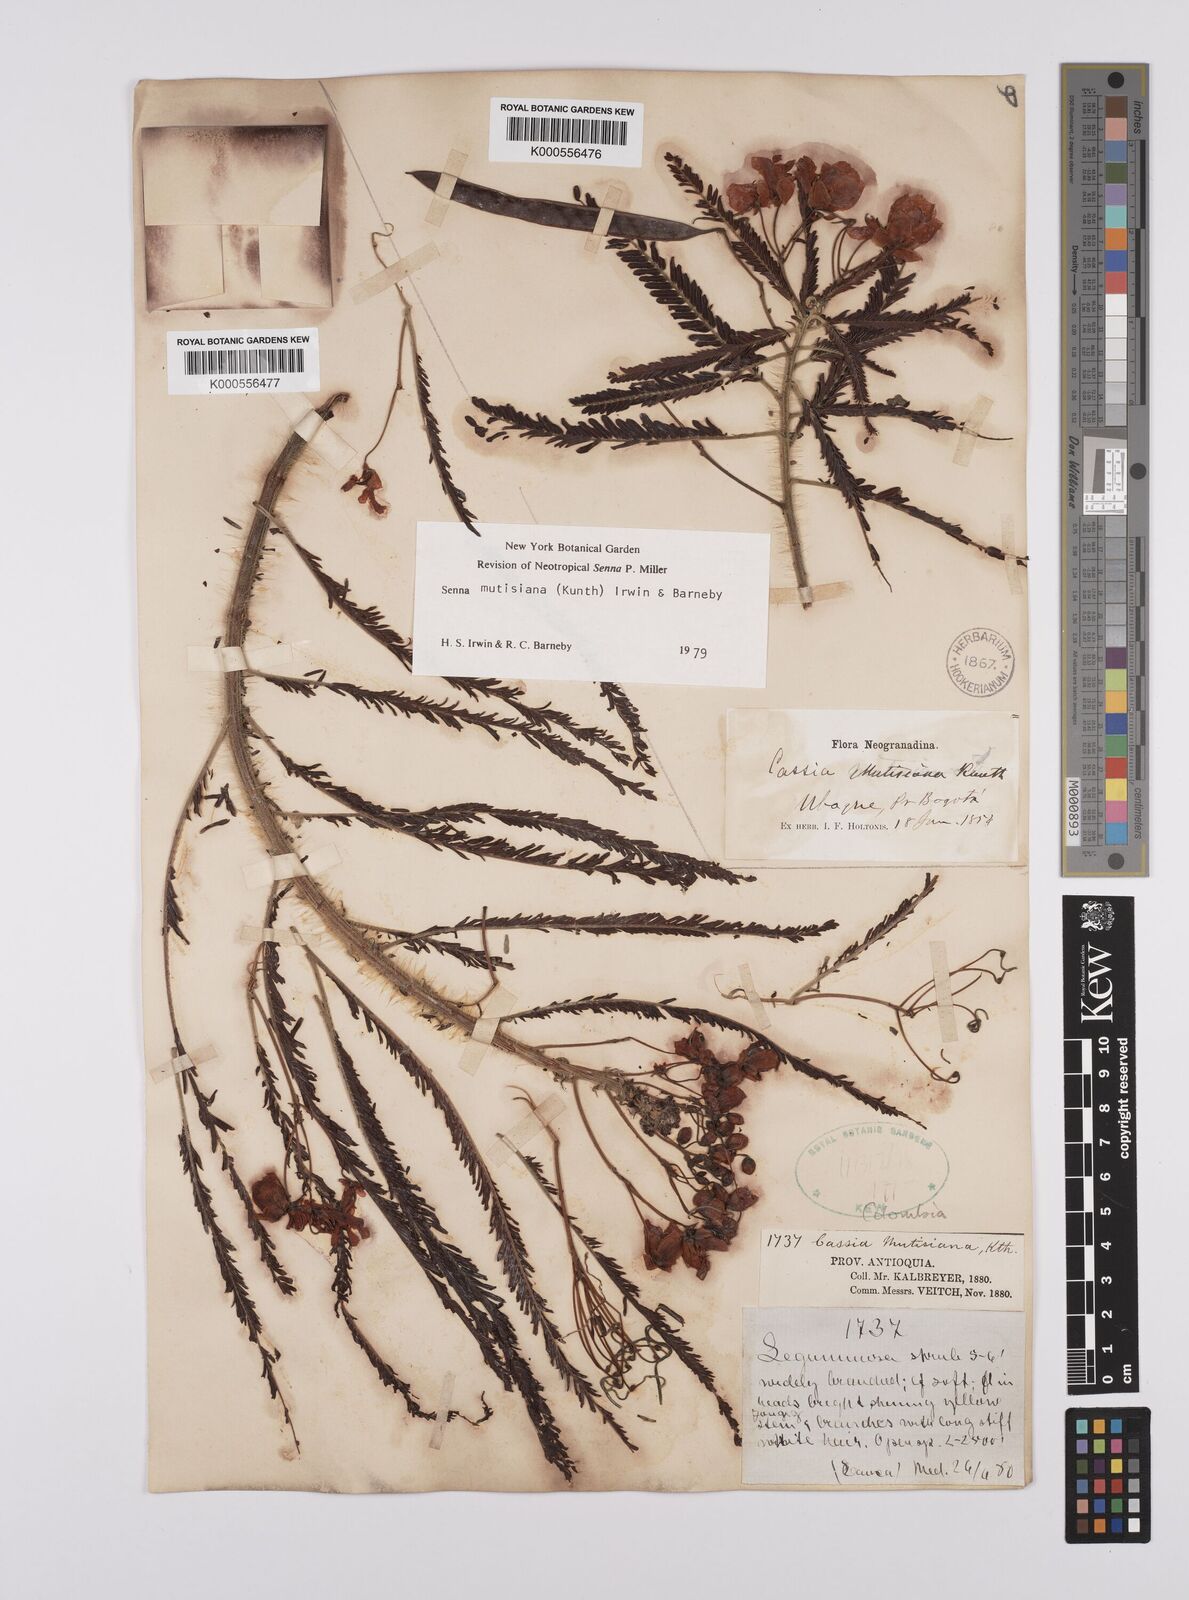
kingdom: Plantae
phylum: Tracheophyta
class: Magnoliopsida
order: Fabales
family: Fabaceae
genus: Senna
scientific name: Senna mutisiana
